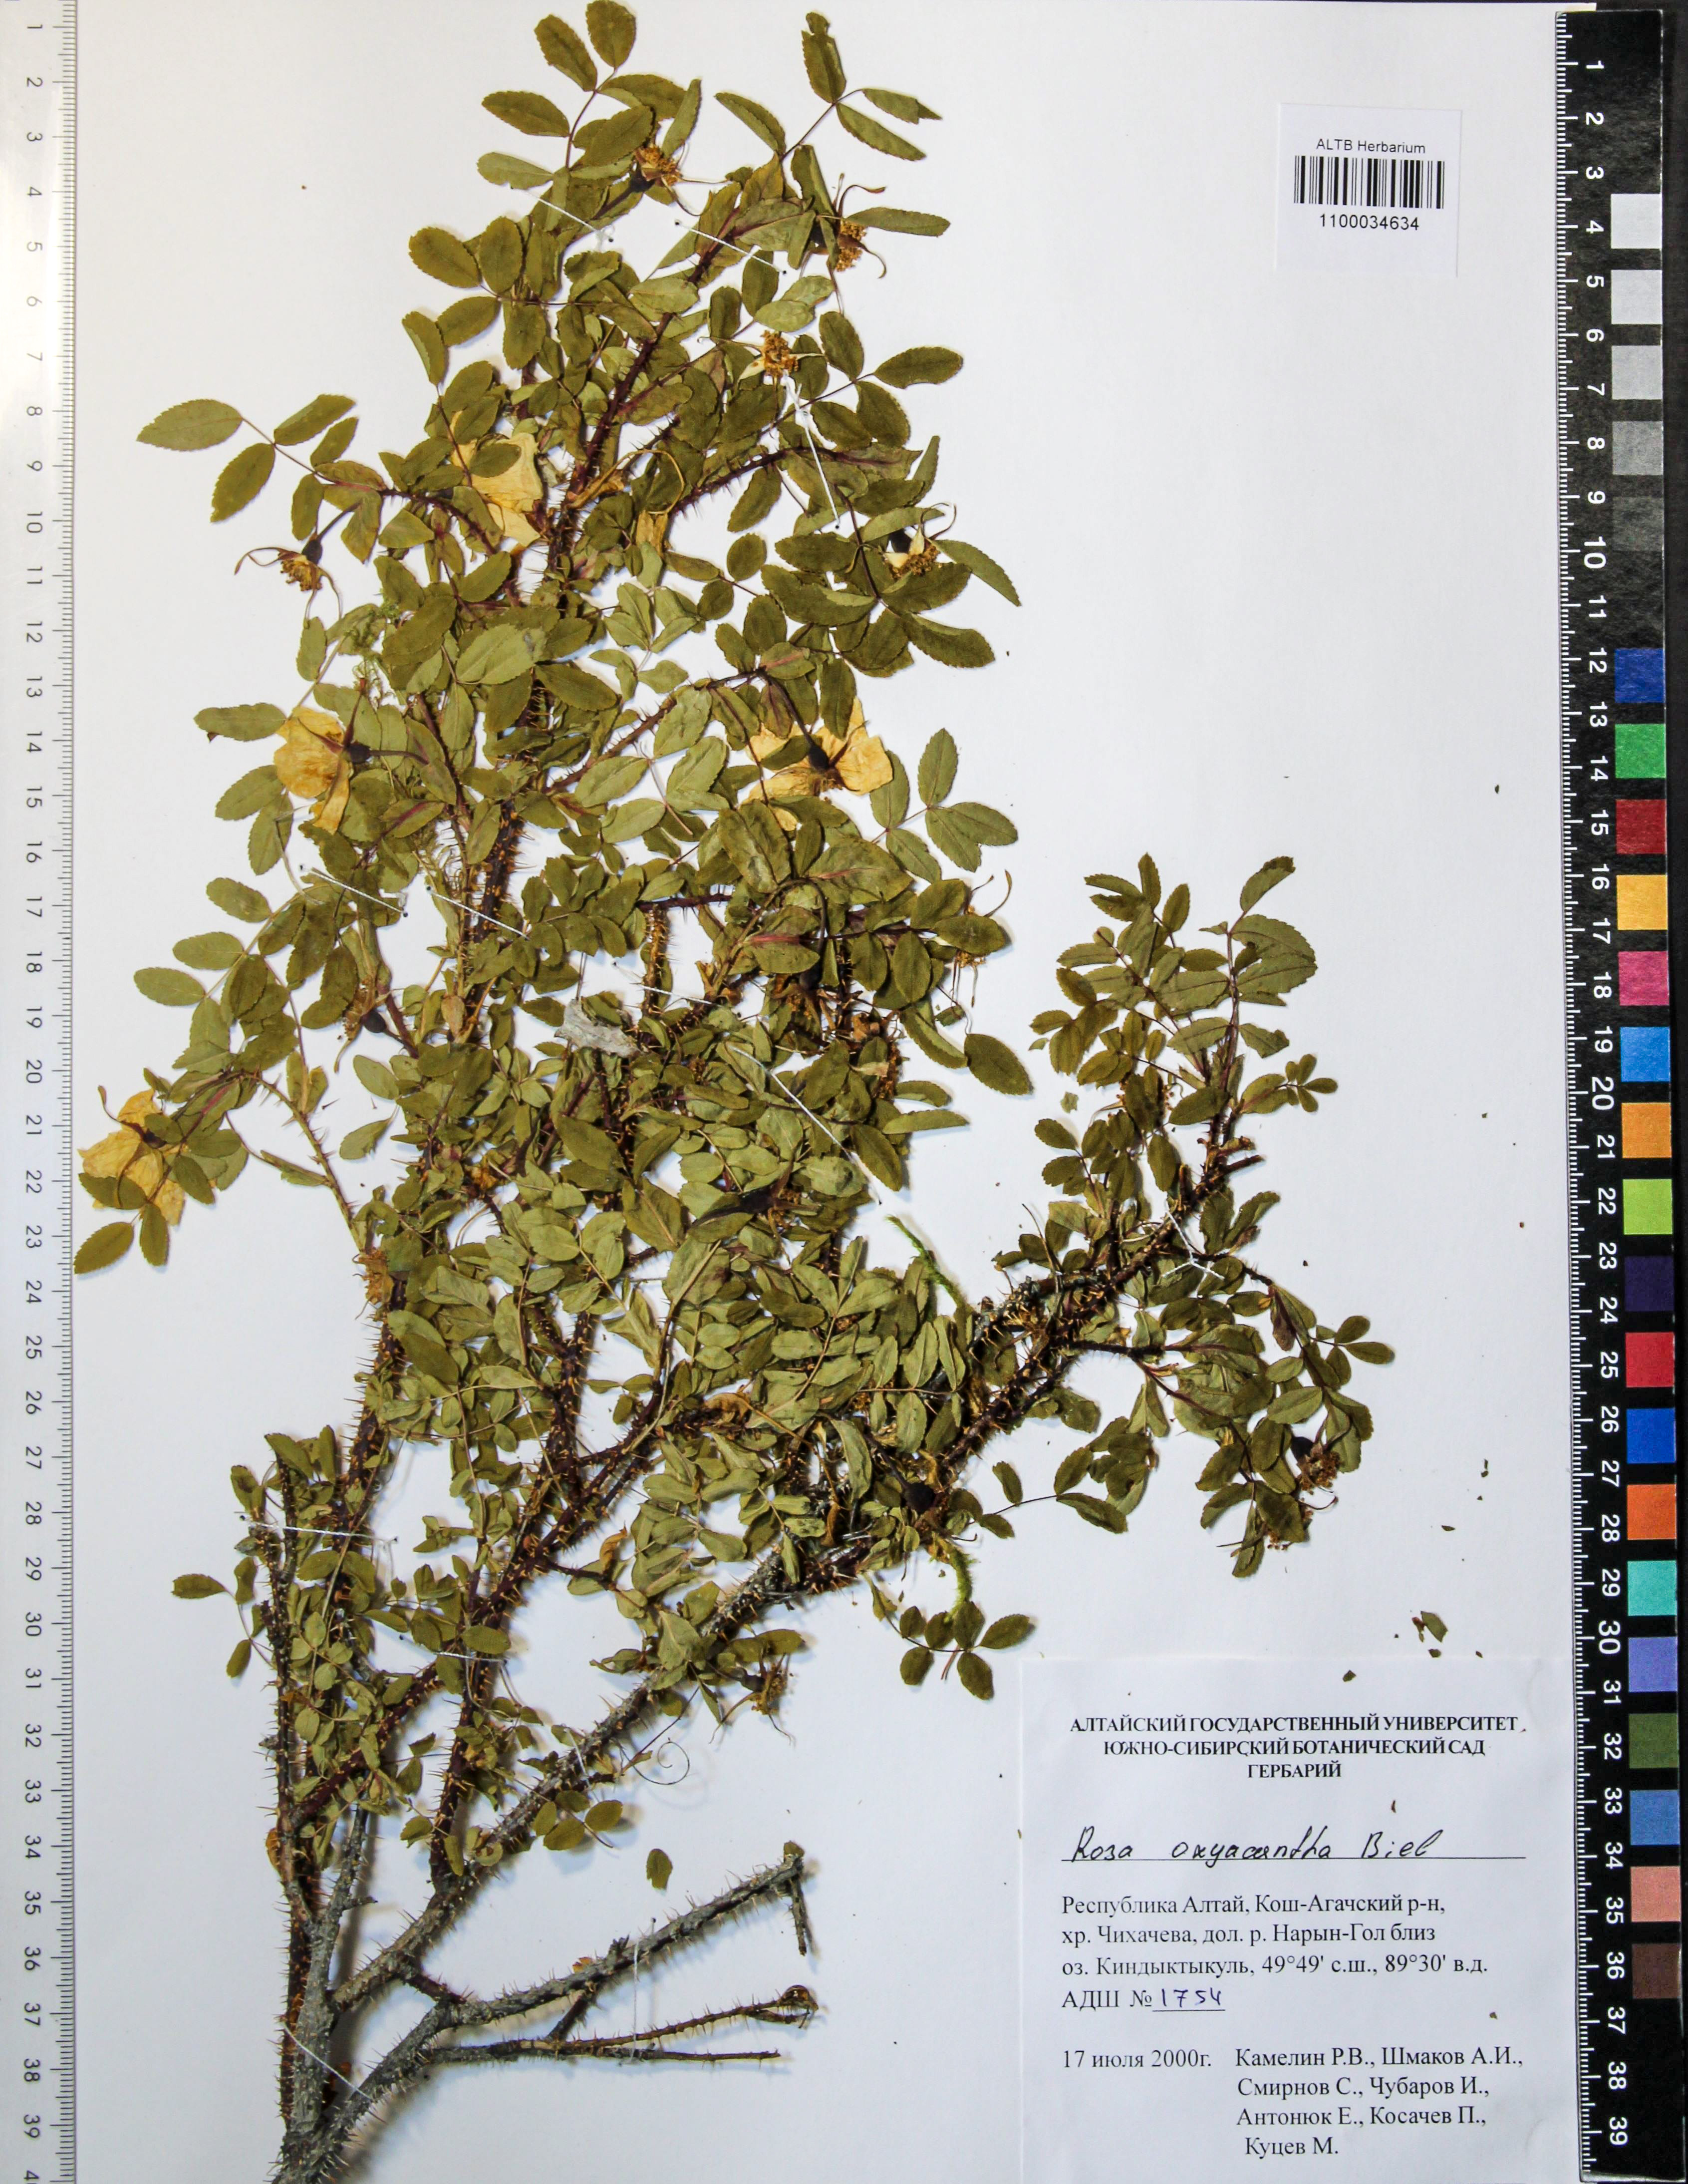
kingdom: Plantae
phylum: Tracheophyta
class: Magnoliopsida
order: Rosales
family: Rosaceae
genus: Rosa
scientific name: Rosa oxyacantha
